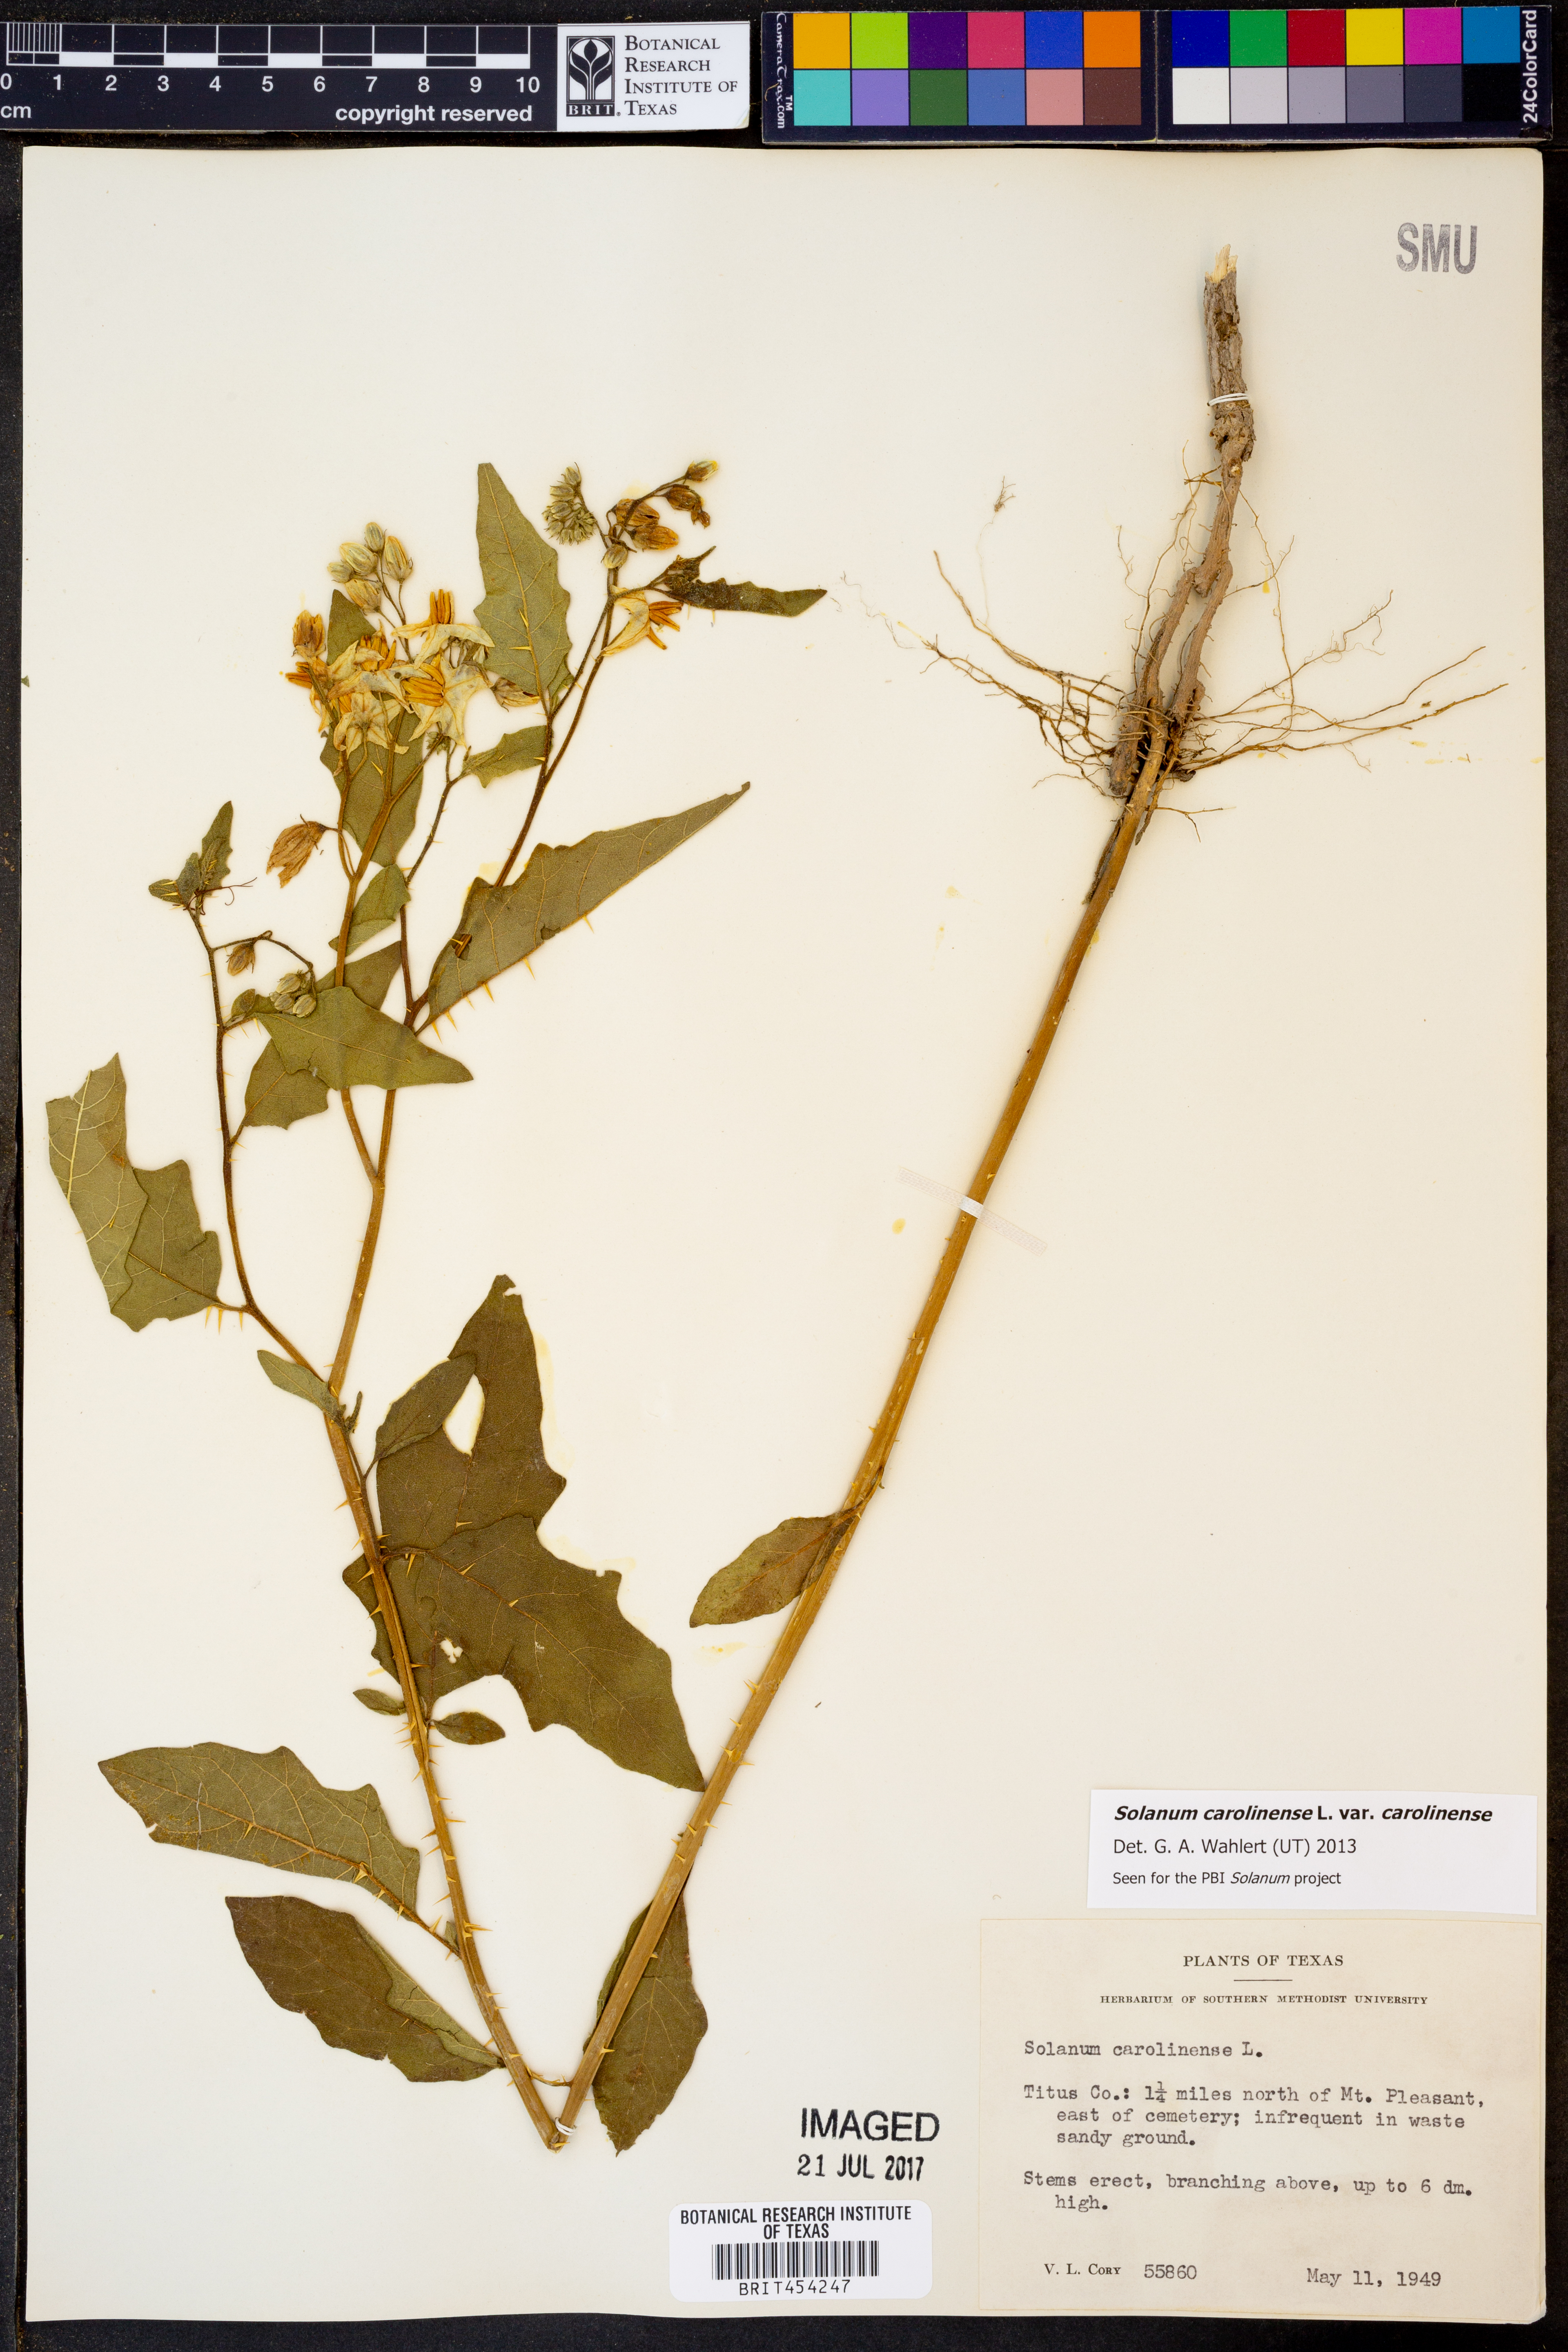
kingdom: Plantae
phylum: Tracheophyta
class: Magnoliopsida
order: Solanales
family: Solanaceae
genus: Solanum
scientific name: Solanum carolinense
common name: Horse-nettle
